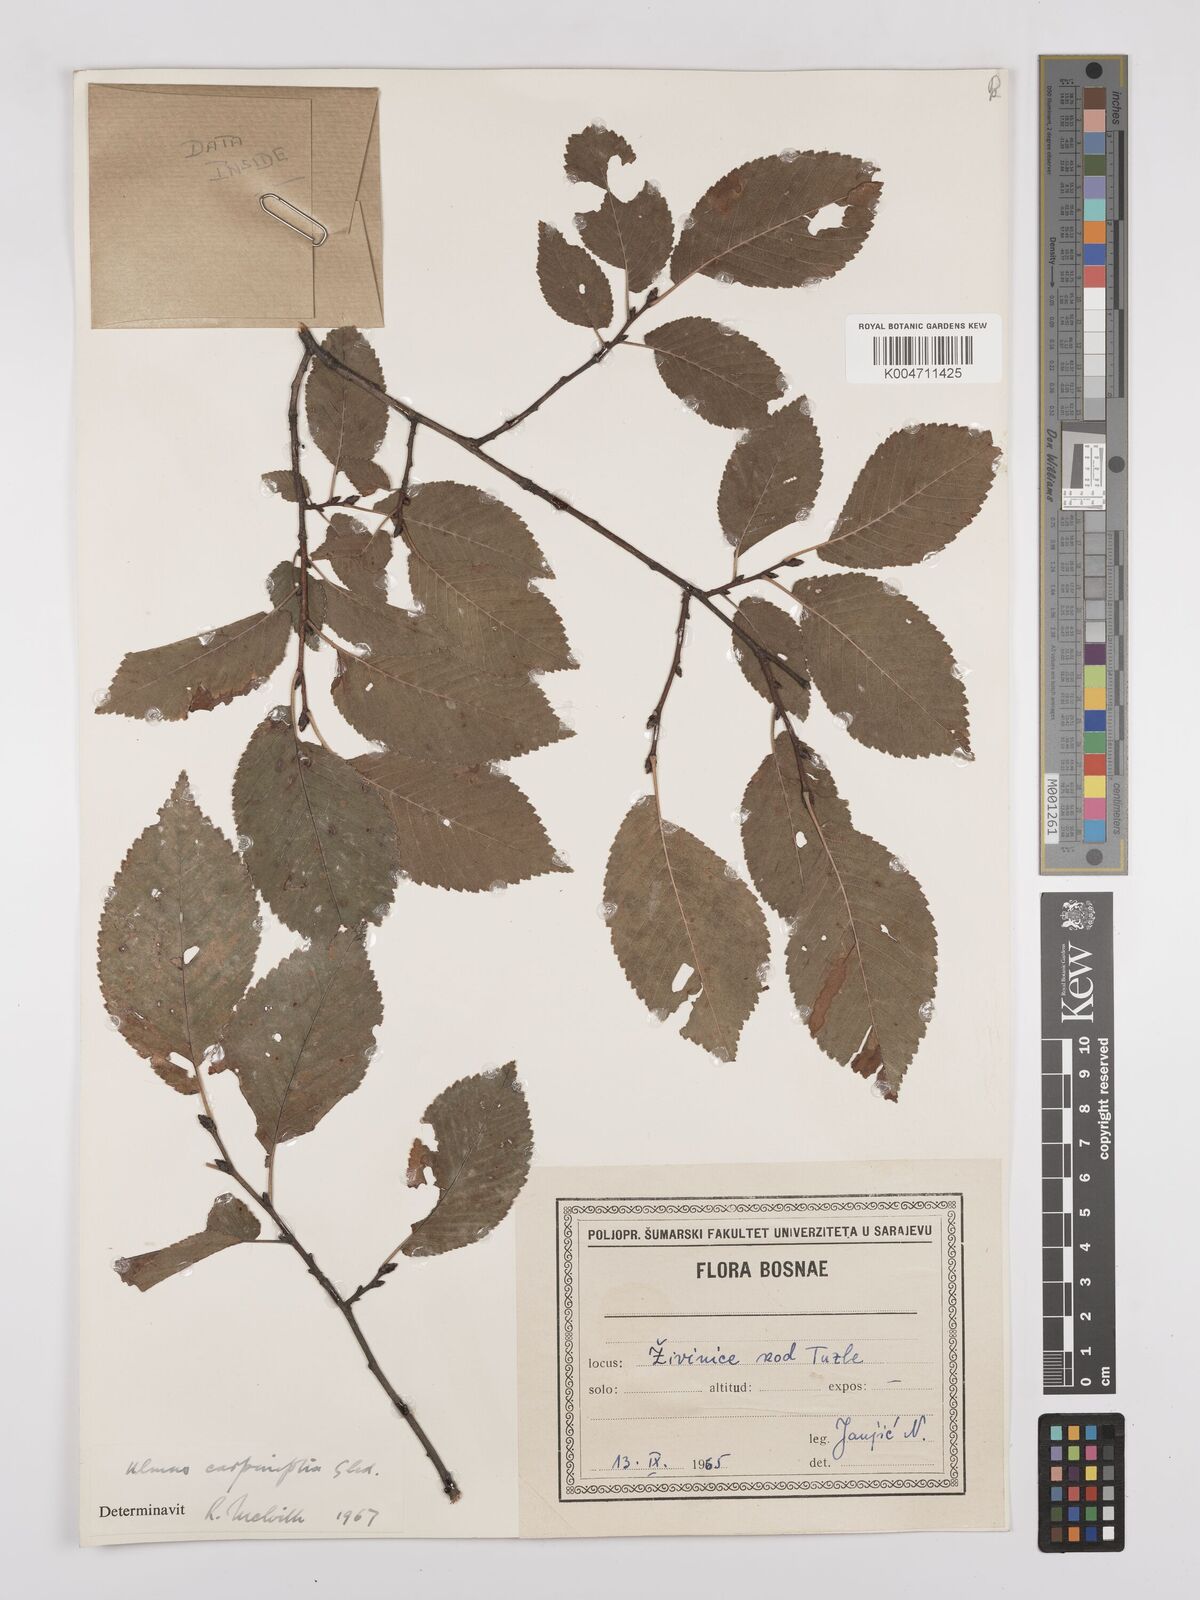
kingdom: Plantae
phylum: Tracheophyta
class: Magnoliopsida
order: Rosales
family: Ulmaceae
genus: Ulmus
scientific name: Ulmus minor
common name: Small-leaved elm
